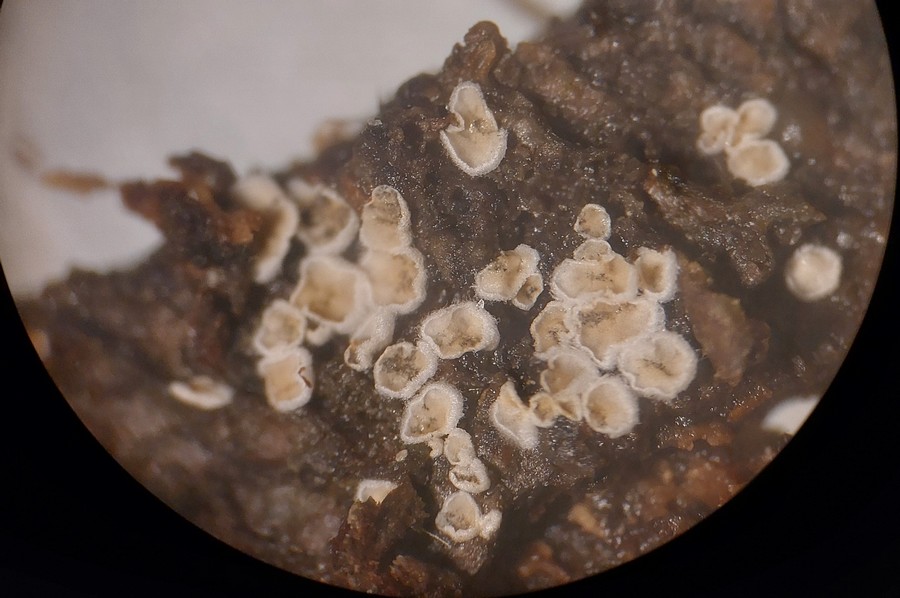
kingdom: Fungi
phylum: Basidiomycota
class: Agaricomycetes
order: Agaricales
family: Crepidotaceae
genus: Pellidiscus
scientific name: Pellidiscus pallidus
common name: skålformet muslingesvamp
